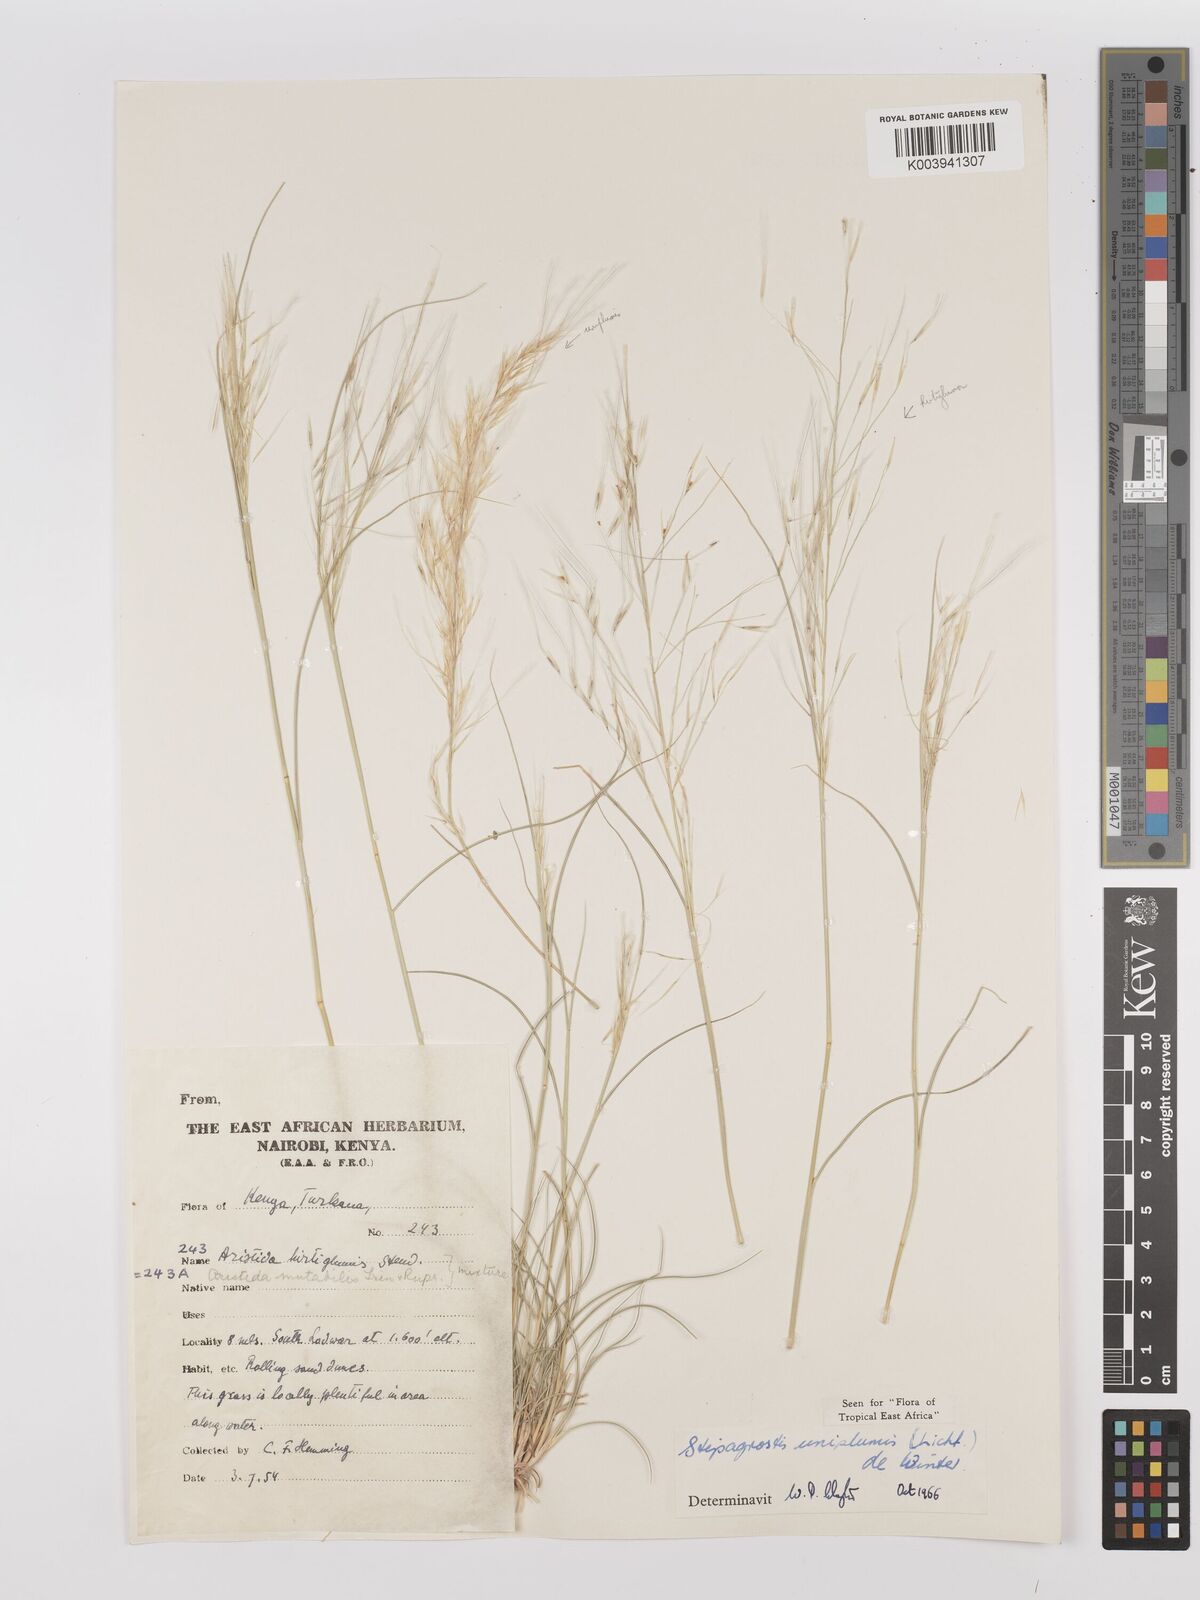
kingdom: Plantae
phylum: Tracheophyta
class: Liliopsida
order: Poales
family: Poaceae
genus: Stipagrostis
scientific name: Stipagrostis uniplumis
